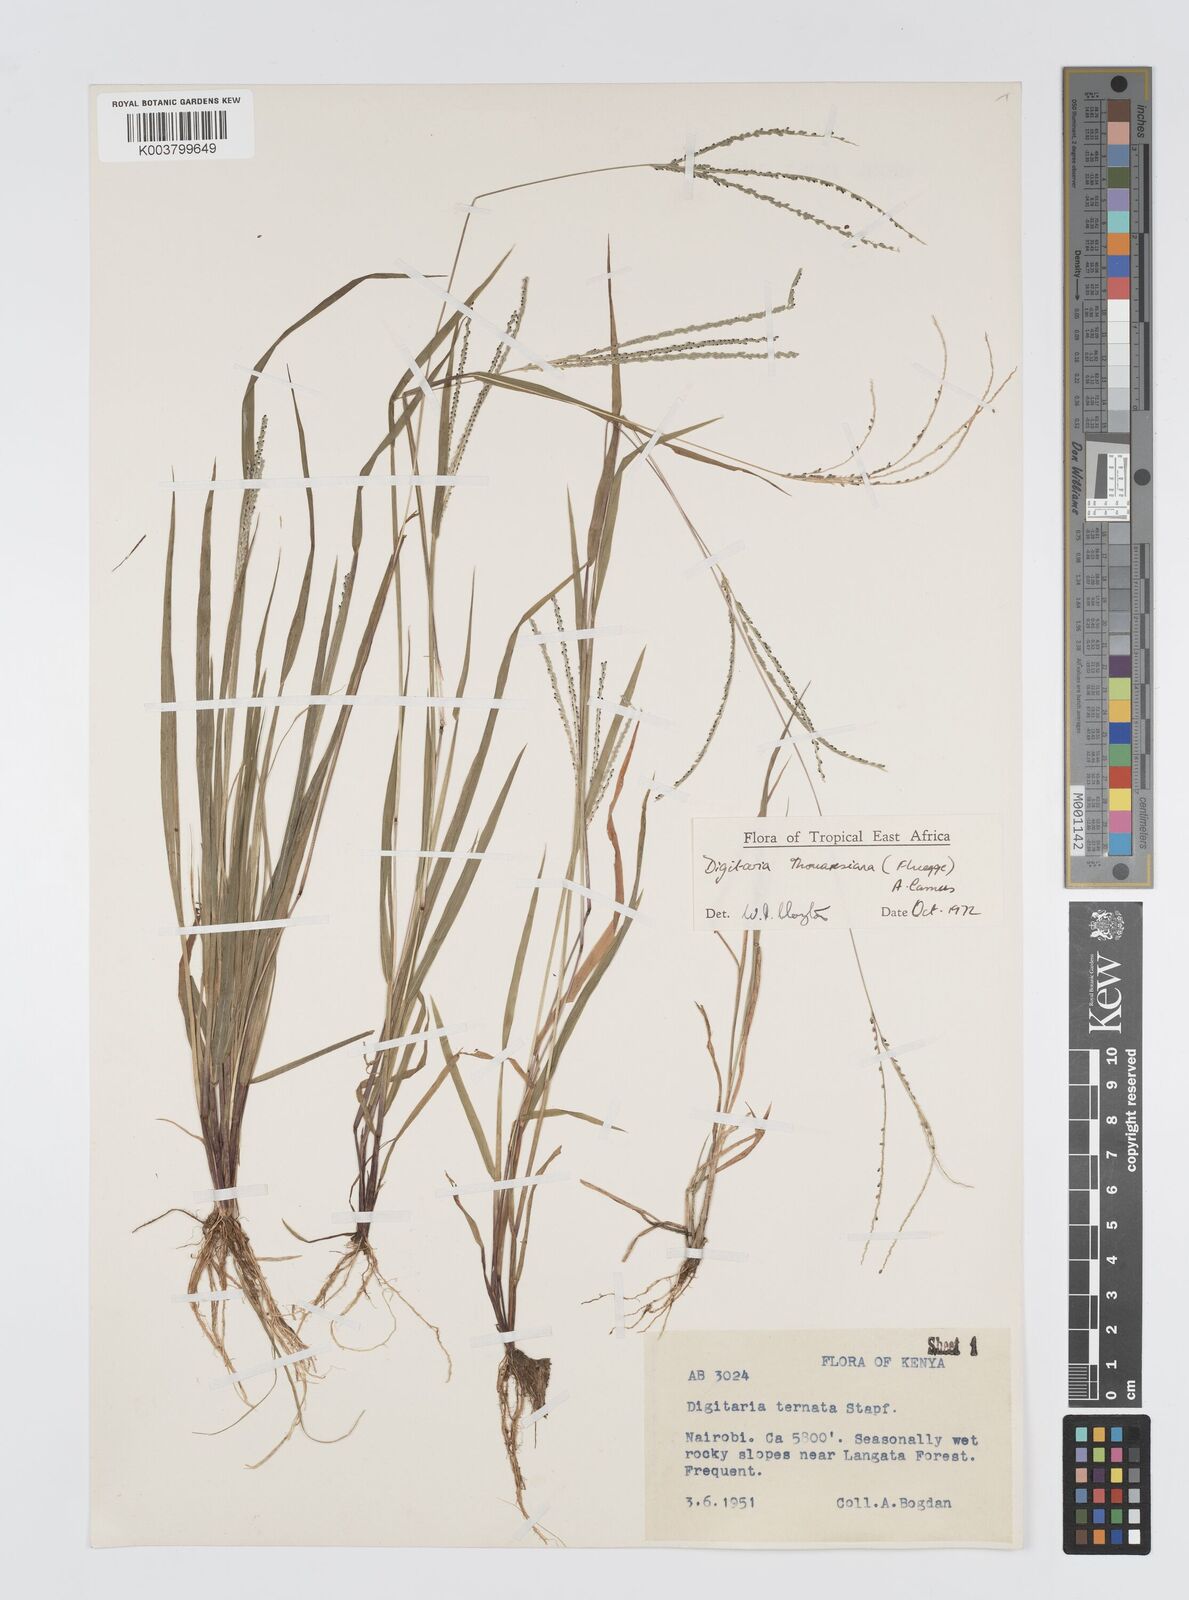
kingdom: Plantae
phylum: Tracheophyta
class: Liliopsida
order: Poales
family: Poaceae
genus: Digitaria
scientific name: Digitaria thouarsiana
